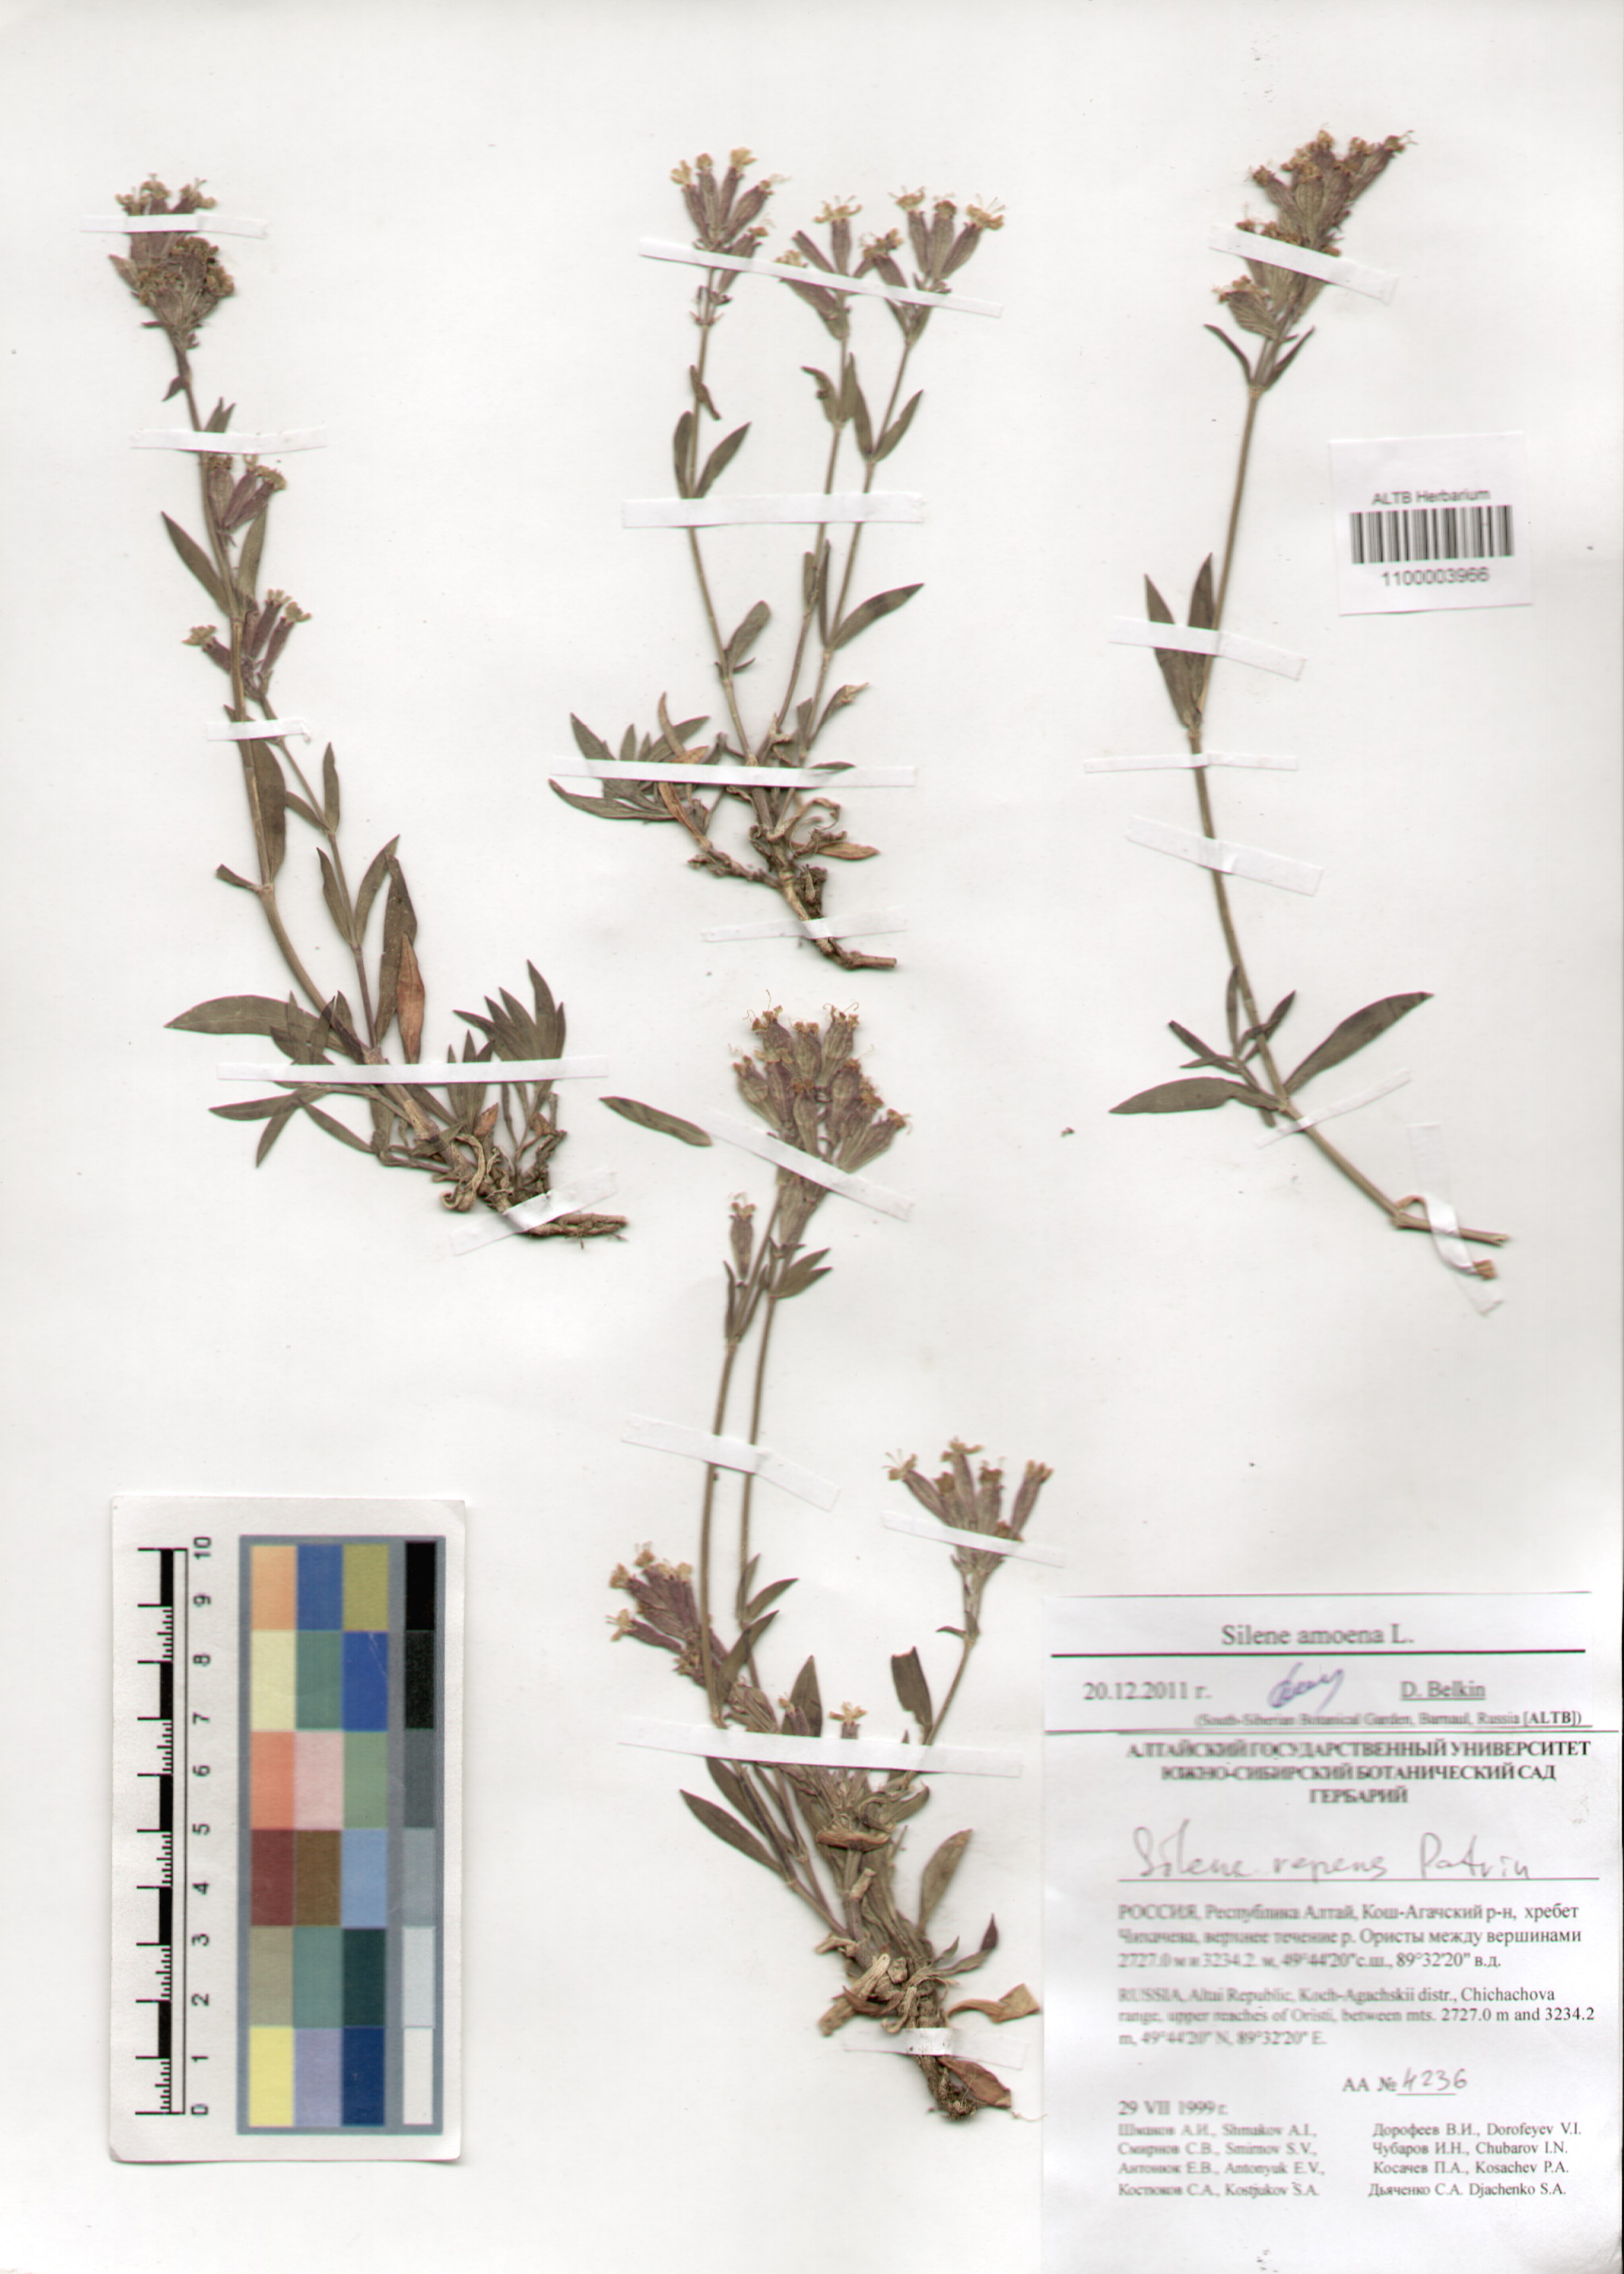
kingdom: Plantae
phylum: Tracheophyta
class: Magnoliopsida
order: Caryophyllales
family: Caryophyllaceae
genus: Silene
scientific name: Silene amoena
